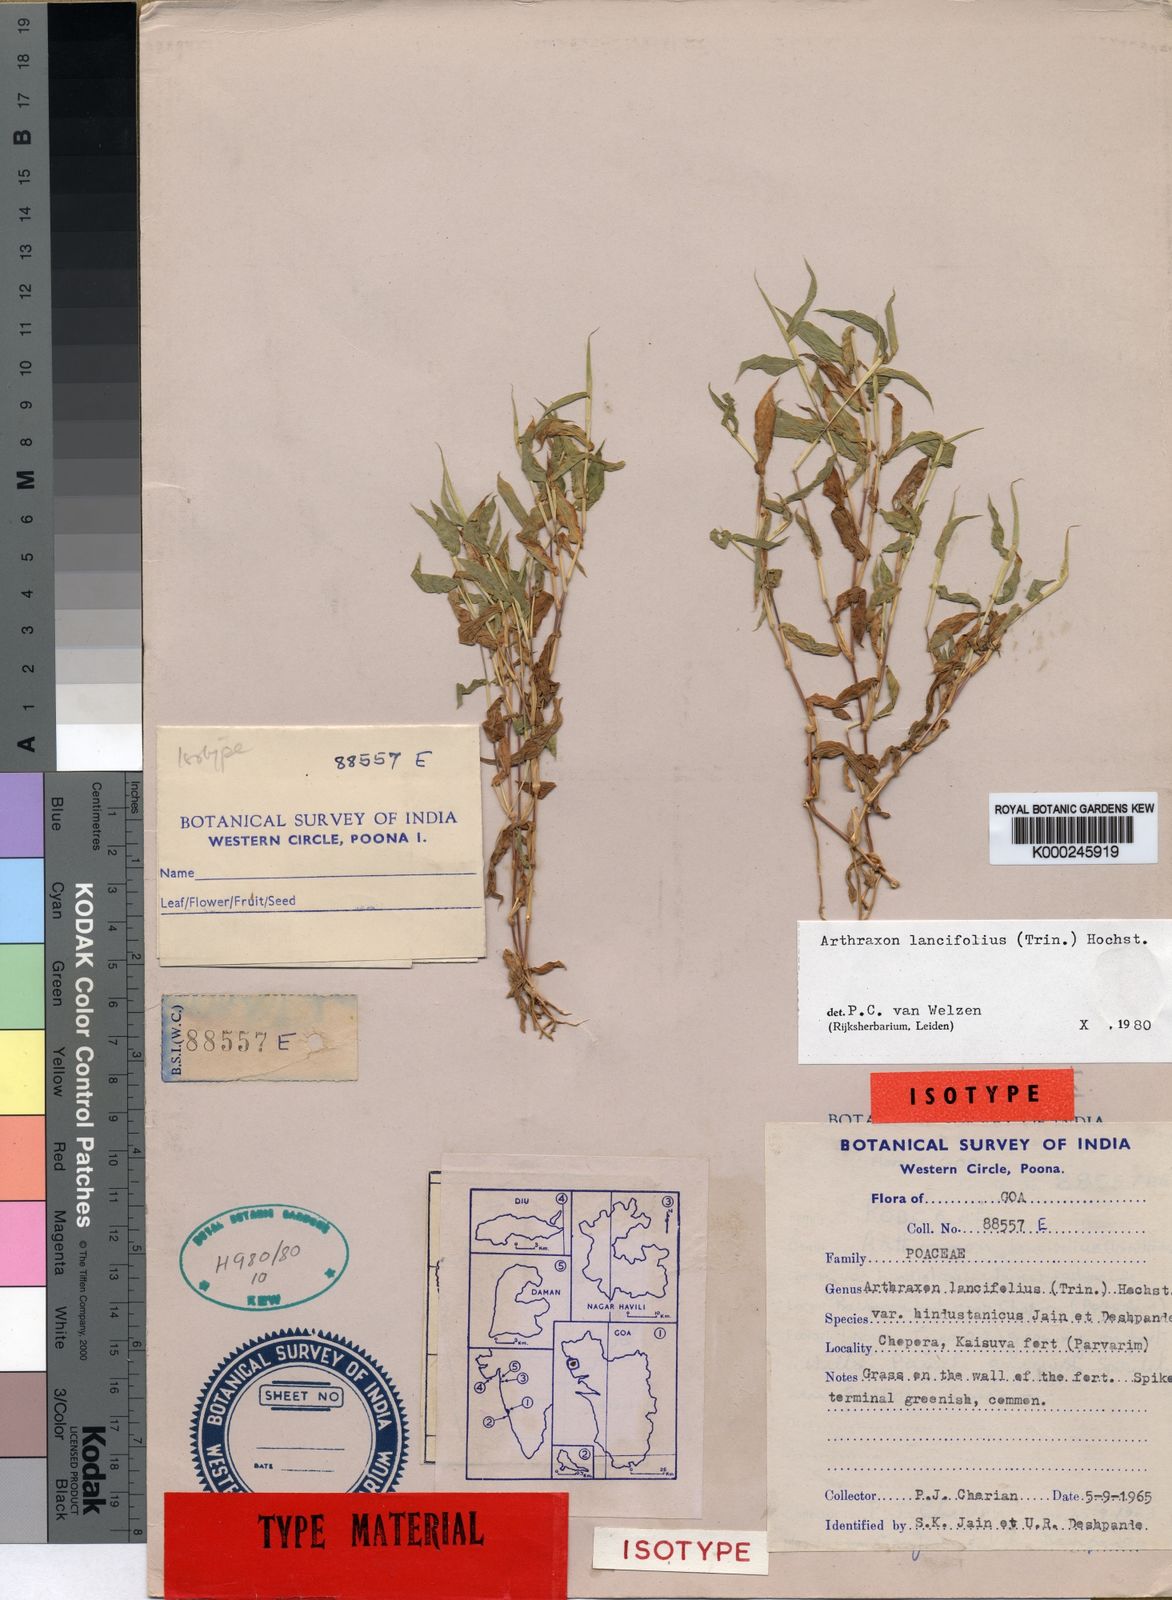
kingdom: Plantae
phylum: Tracheophyta
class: Liliopsida
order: Poales
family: Poaceae
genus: Arthraxon
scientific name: Arthraxon lancifolius
